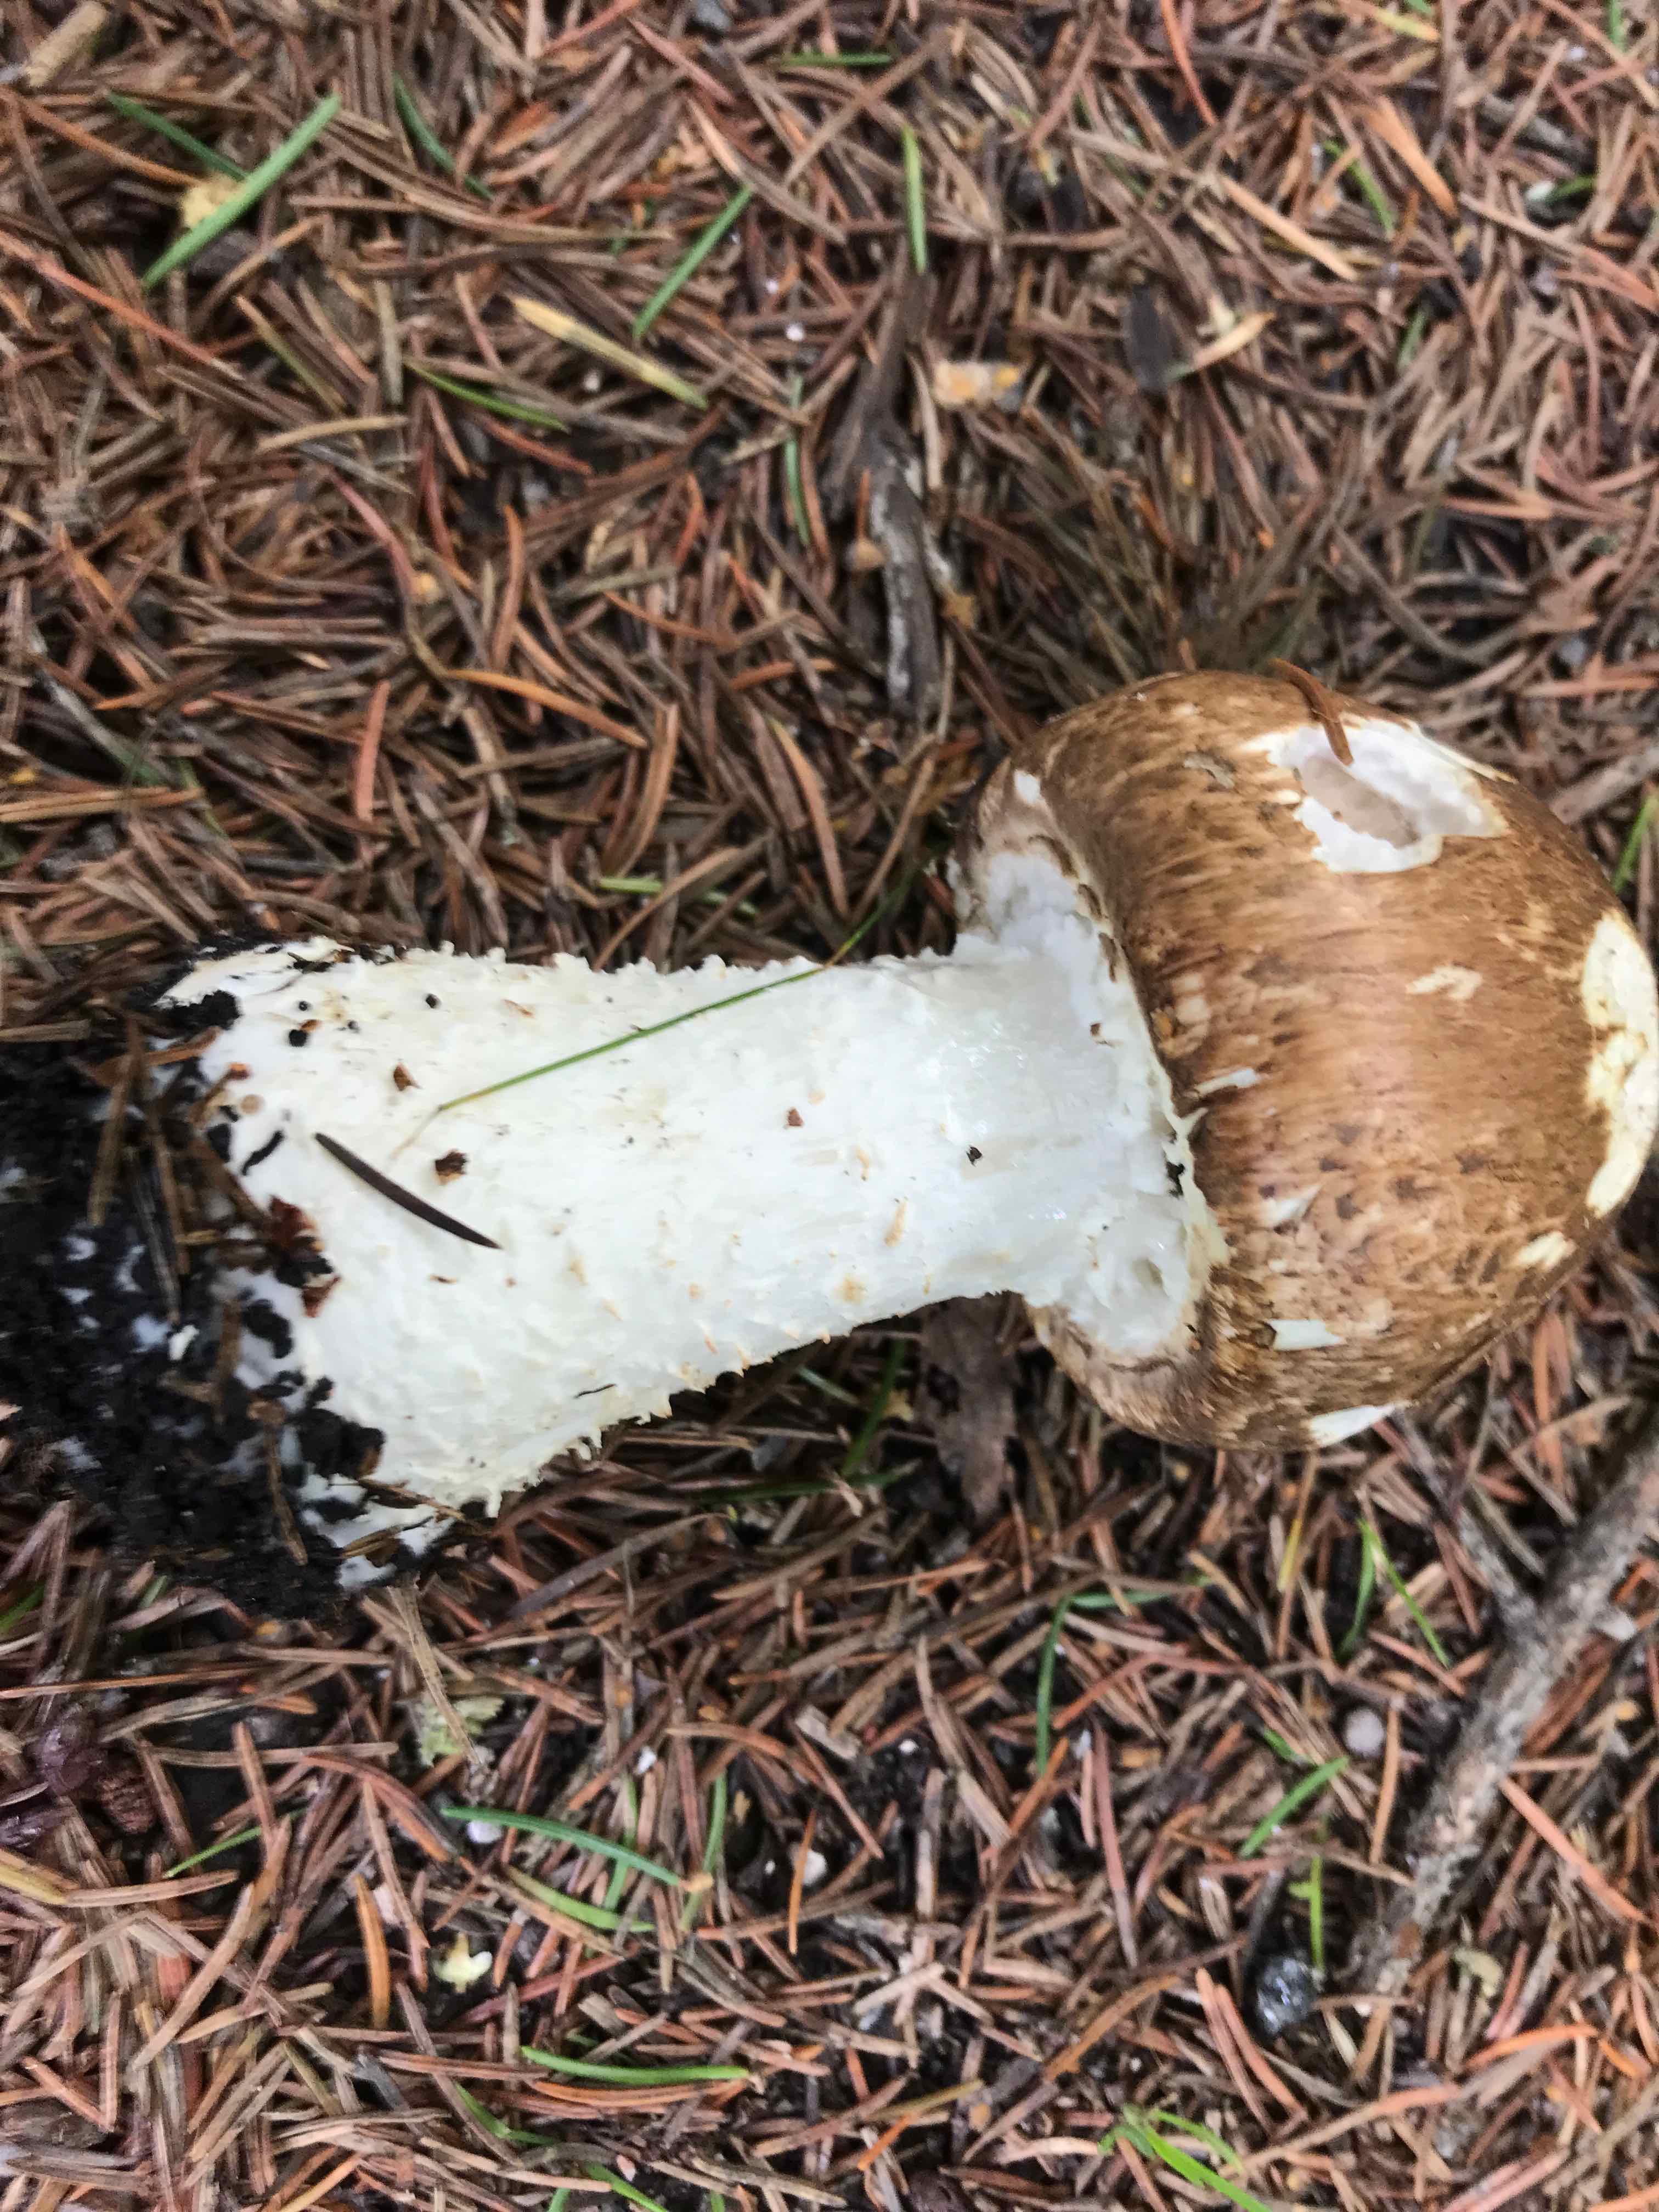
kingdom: Fungi
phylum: Basidiomycota
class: Agaricomycetes
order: Agaricales
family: Agaricaceae
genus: Agaricus
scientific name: Agaricus augustus
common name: prægtig champignon
